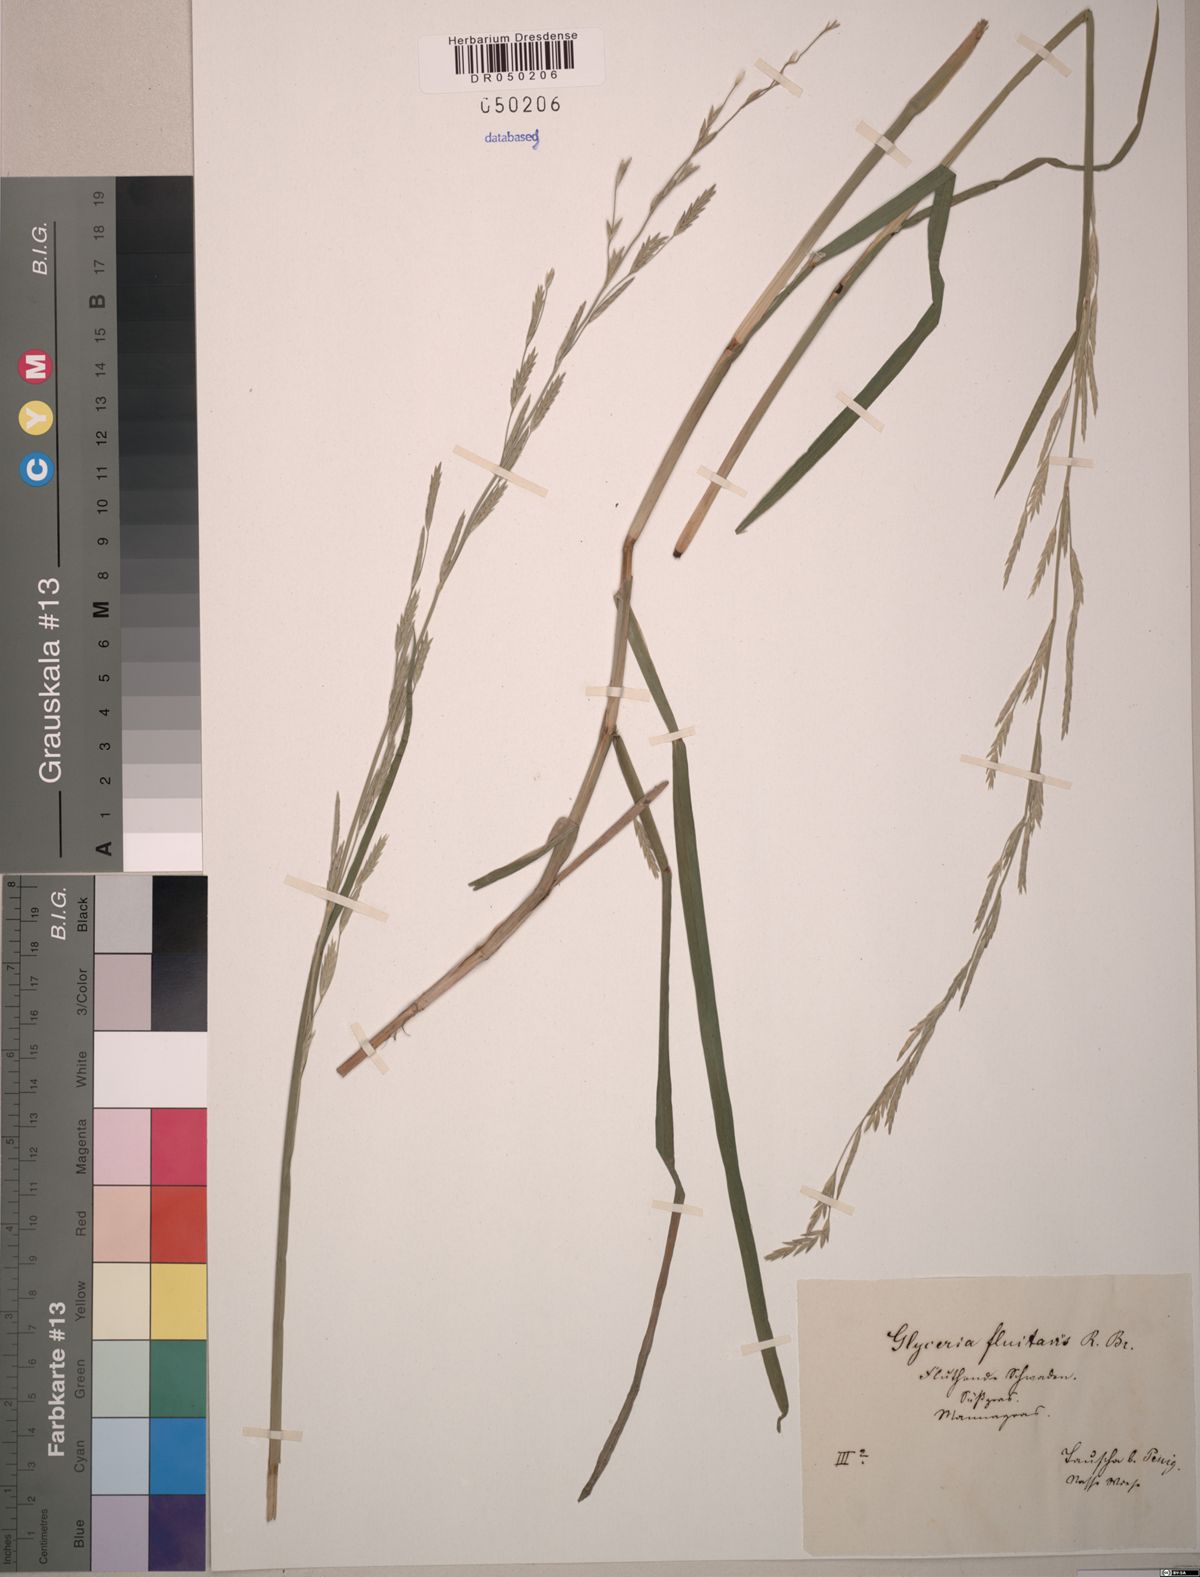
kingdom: Plantae
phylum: Tracheophyta
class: Liliopsida
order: Poales
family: Poaceae
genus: Glyceria
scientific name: Glyceria fluitans
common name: Floating sweet-grass
